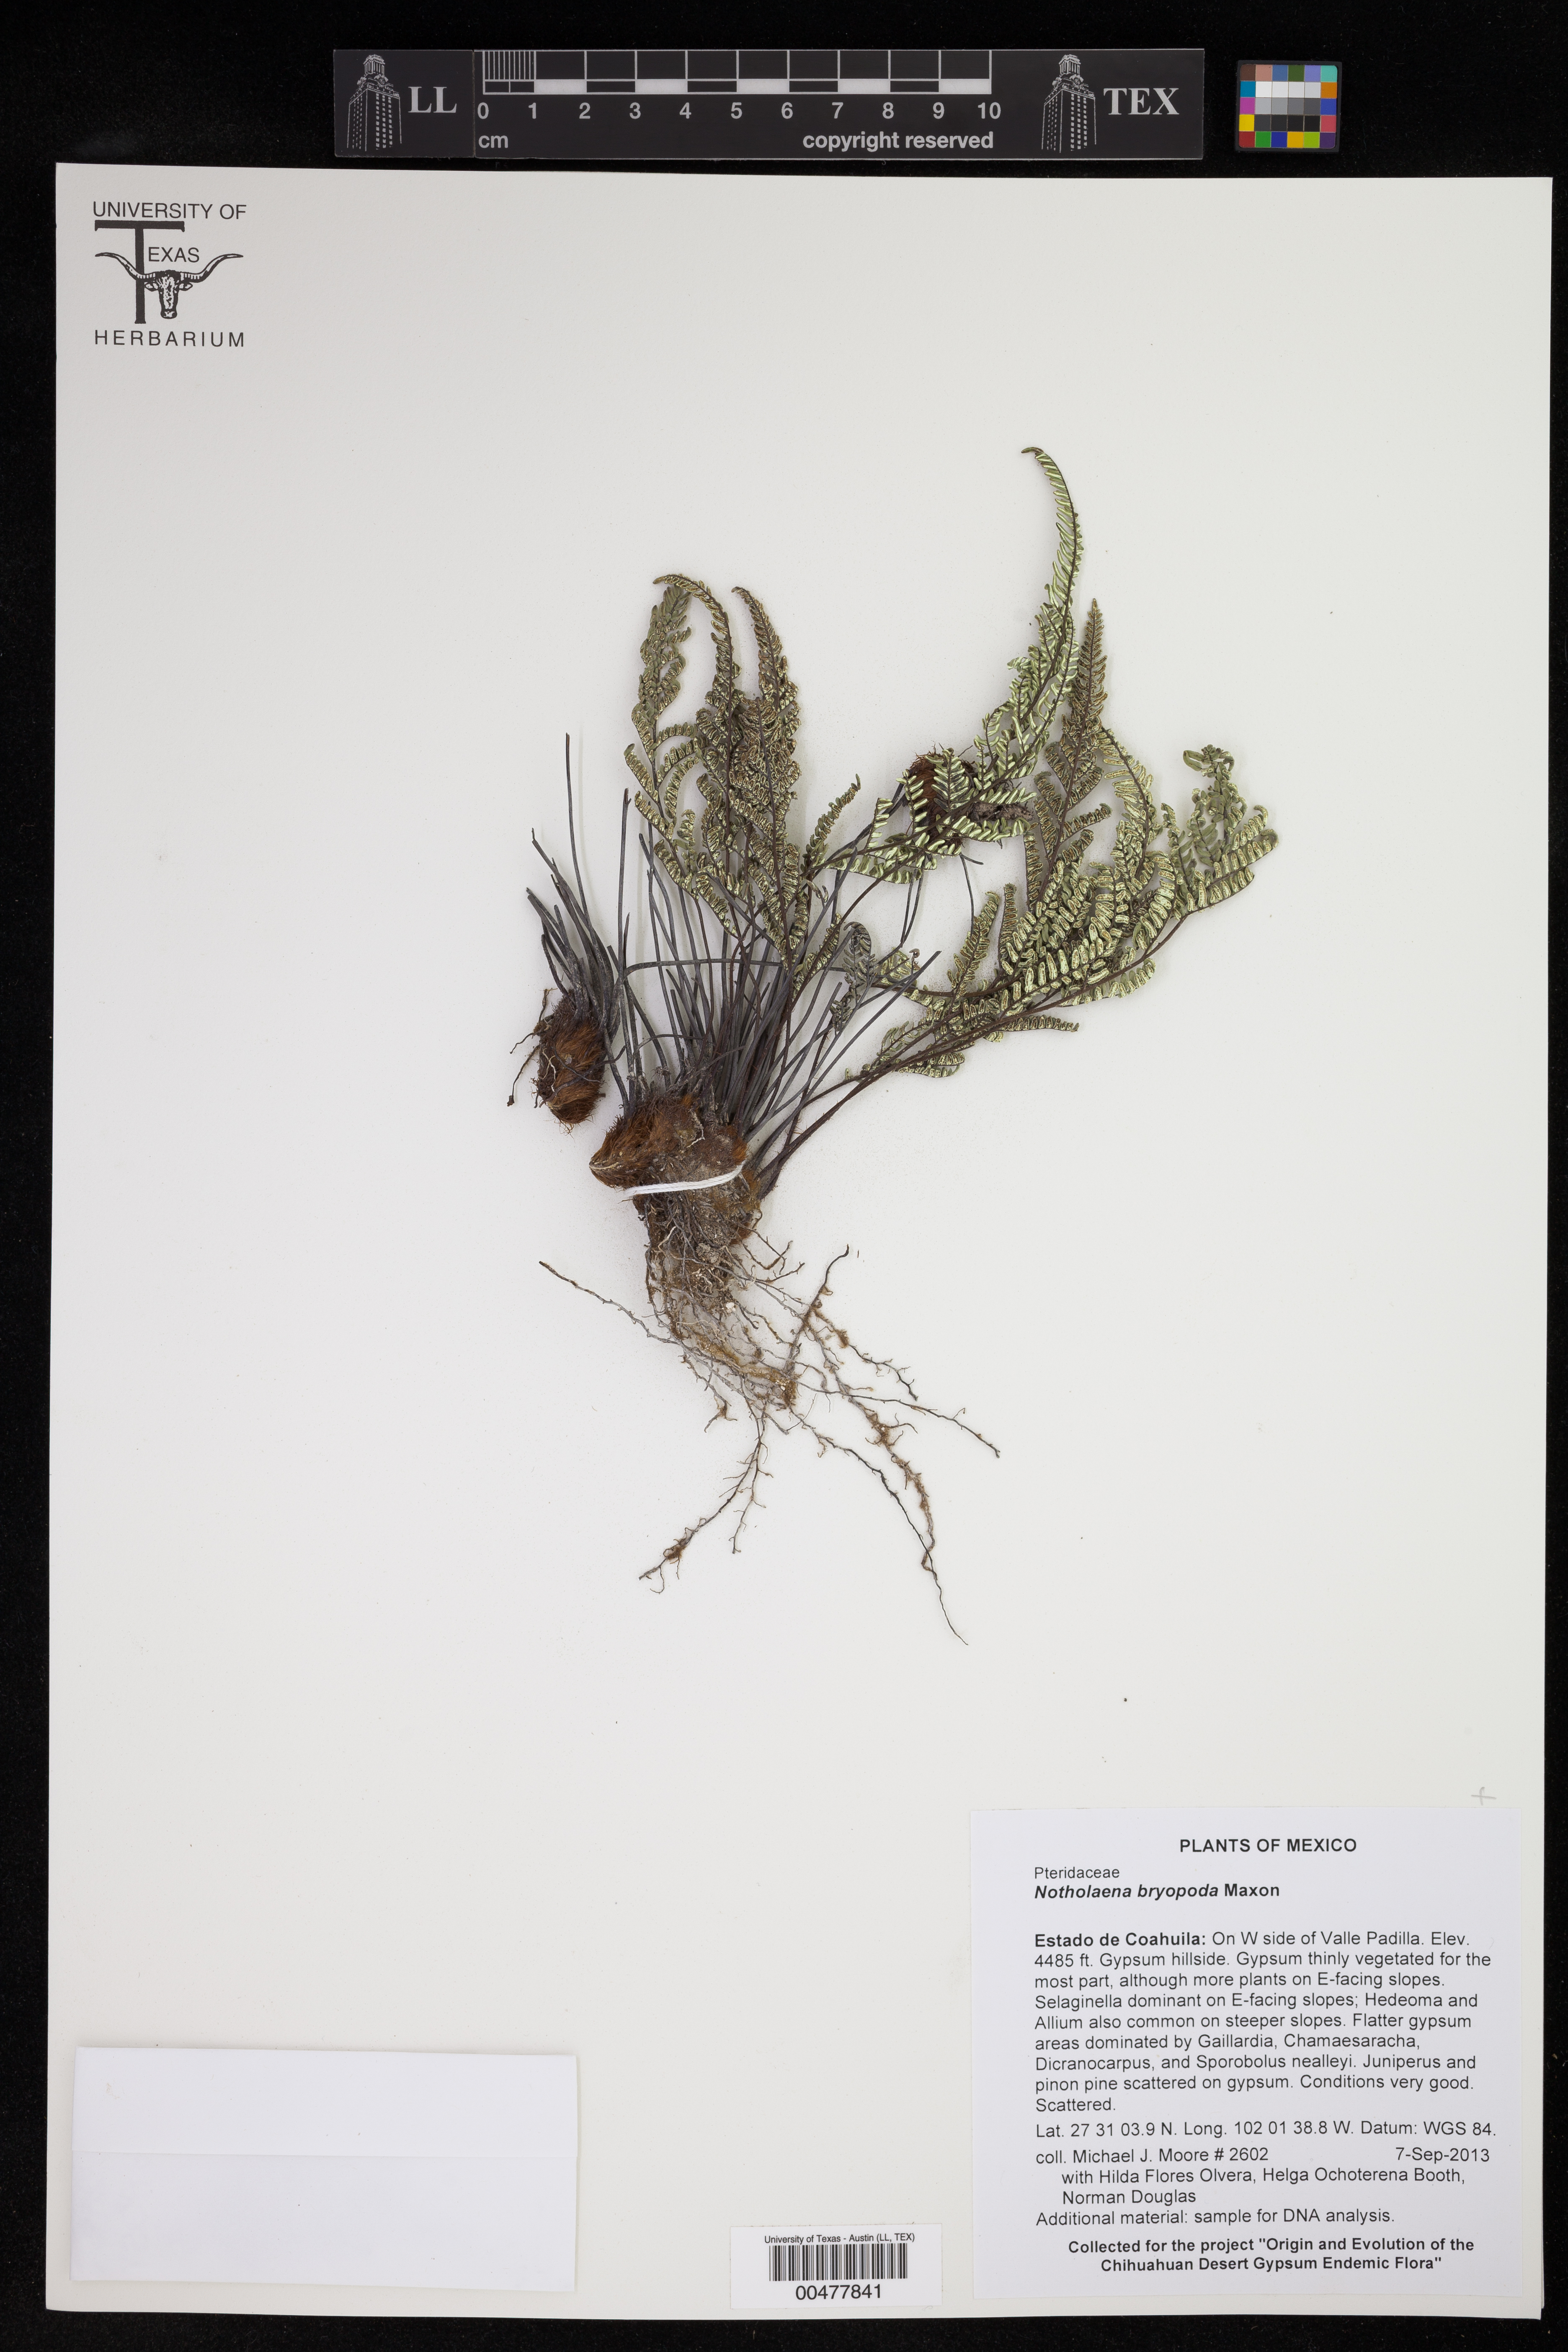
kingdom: Plantae
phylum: Tracheophyta
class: Polypodiopsida
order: Polypodiales
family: Pteridaceae
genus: Notholaena
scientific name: Notholaena bryopoda
